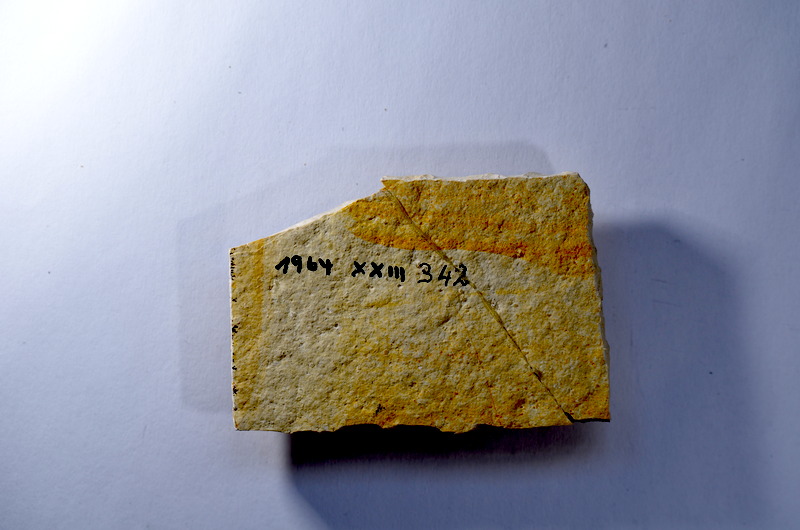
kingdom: Animalia
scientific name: Animalia
